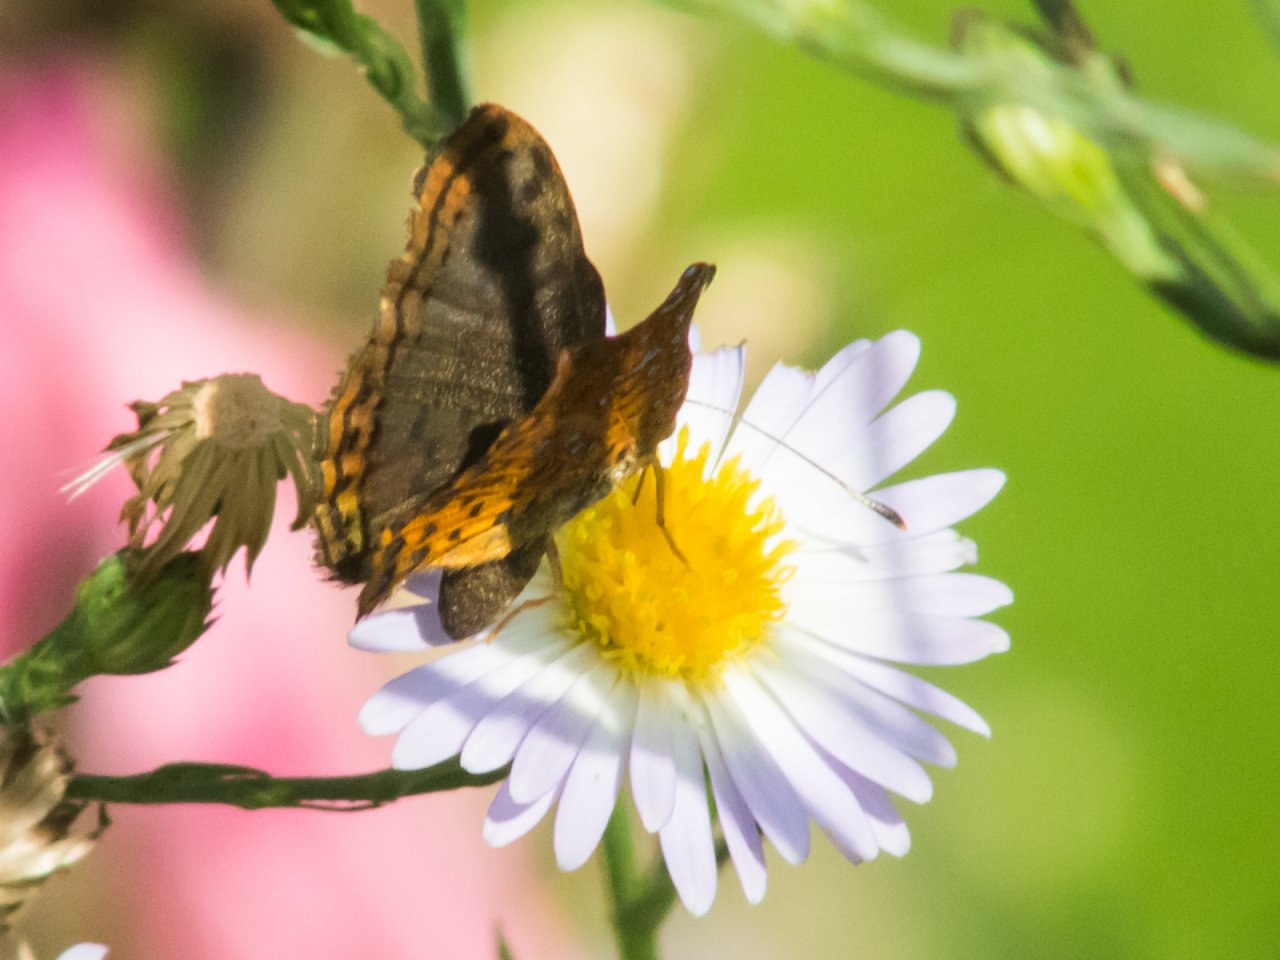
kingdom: Animalia
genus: Caria
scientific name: Caria ino
